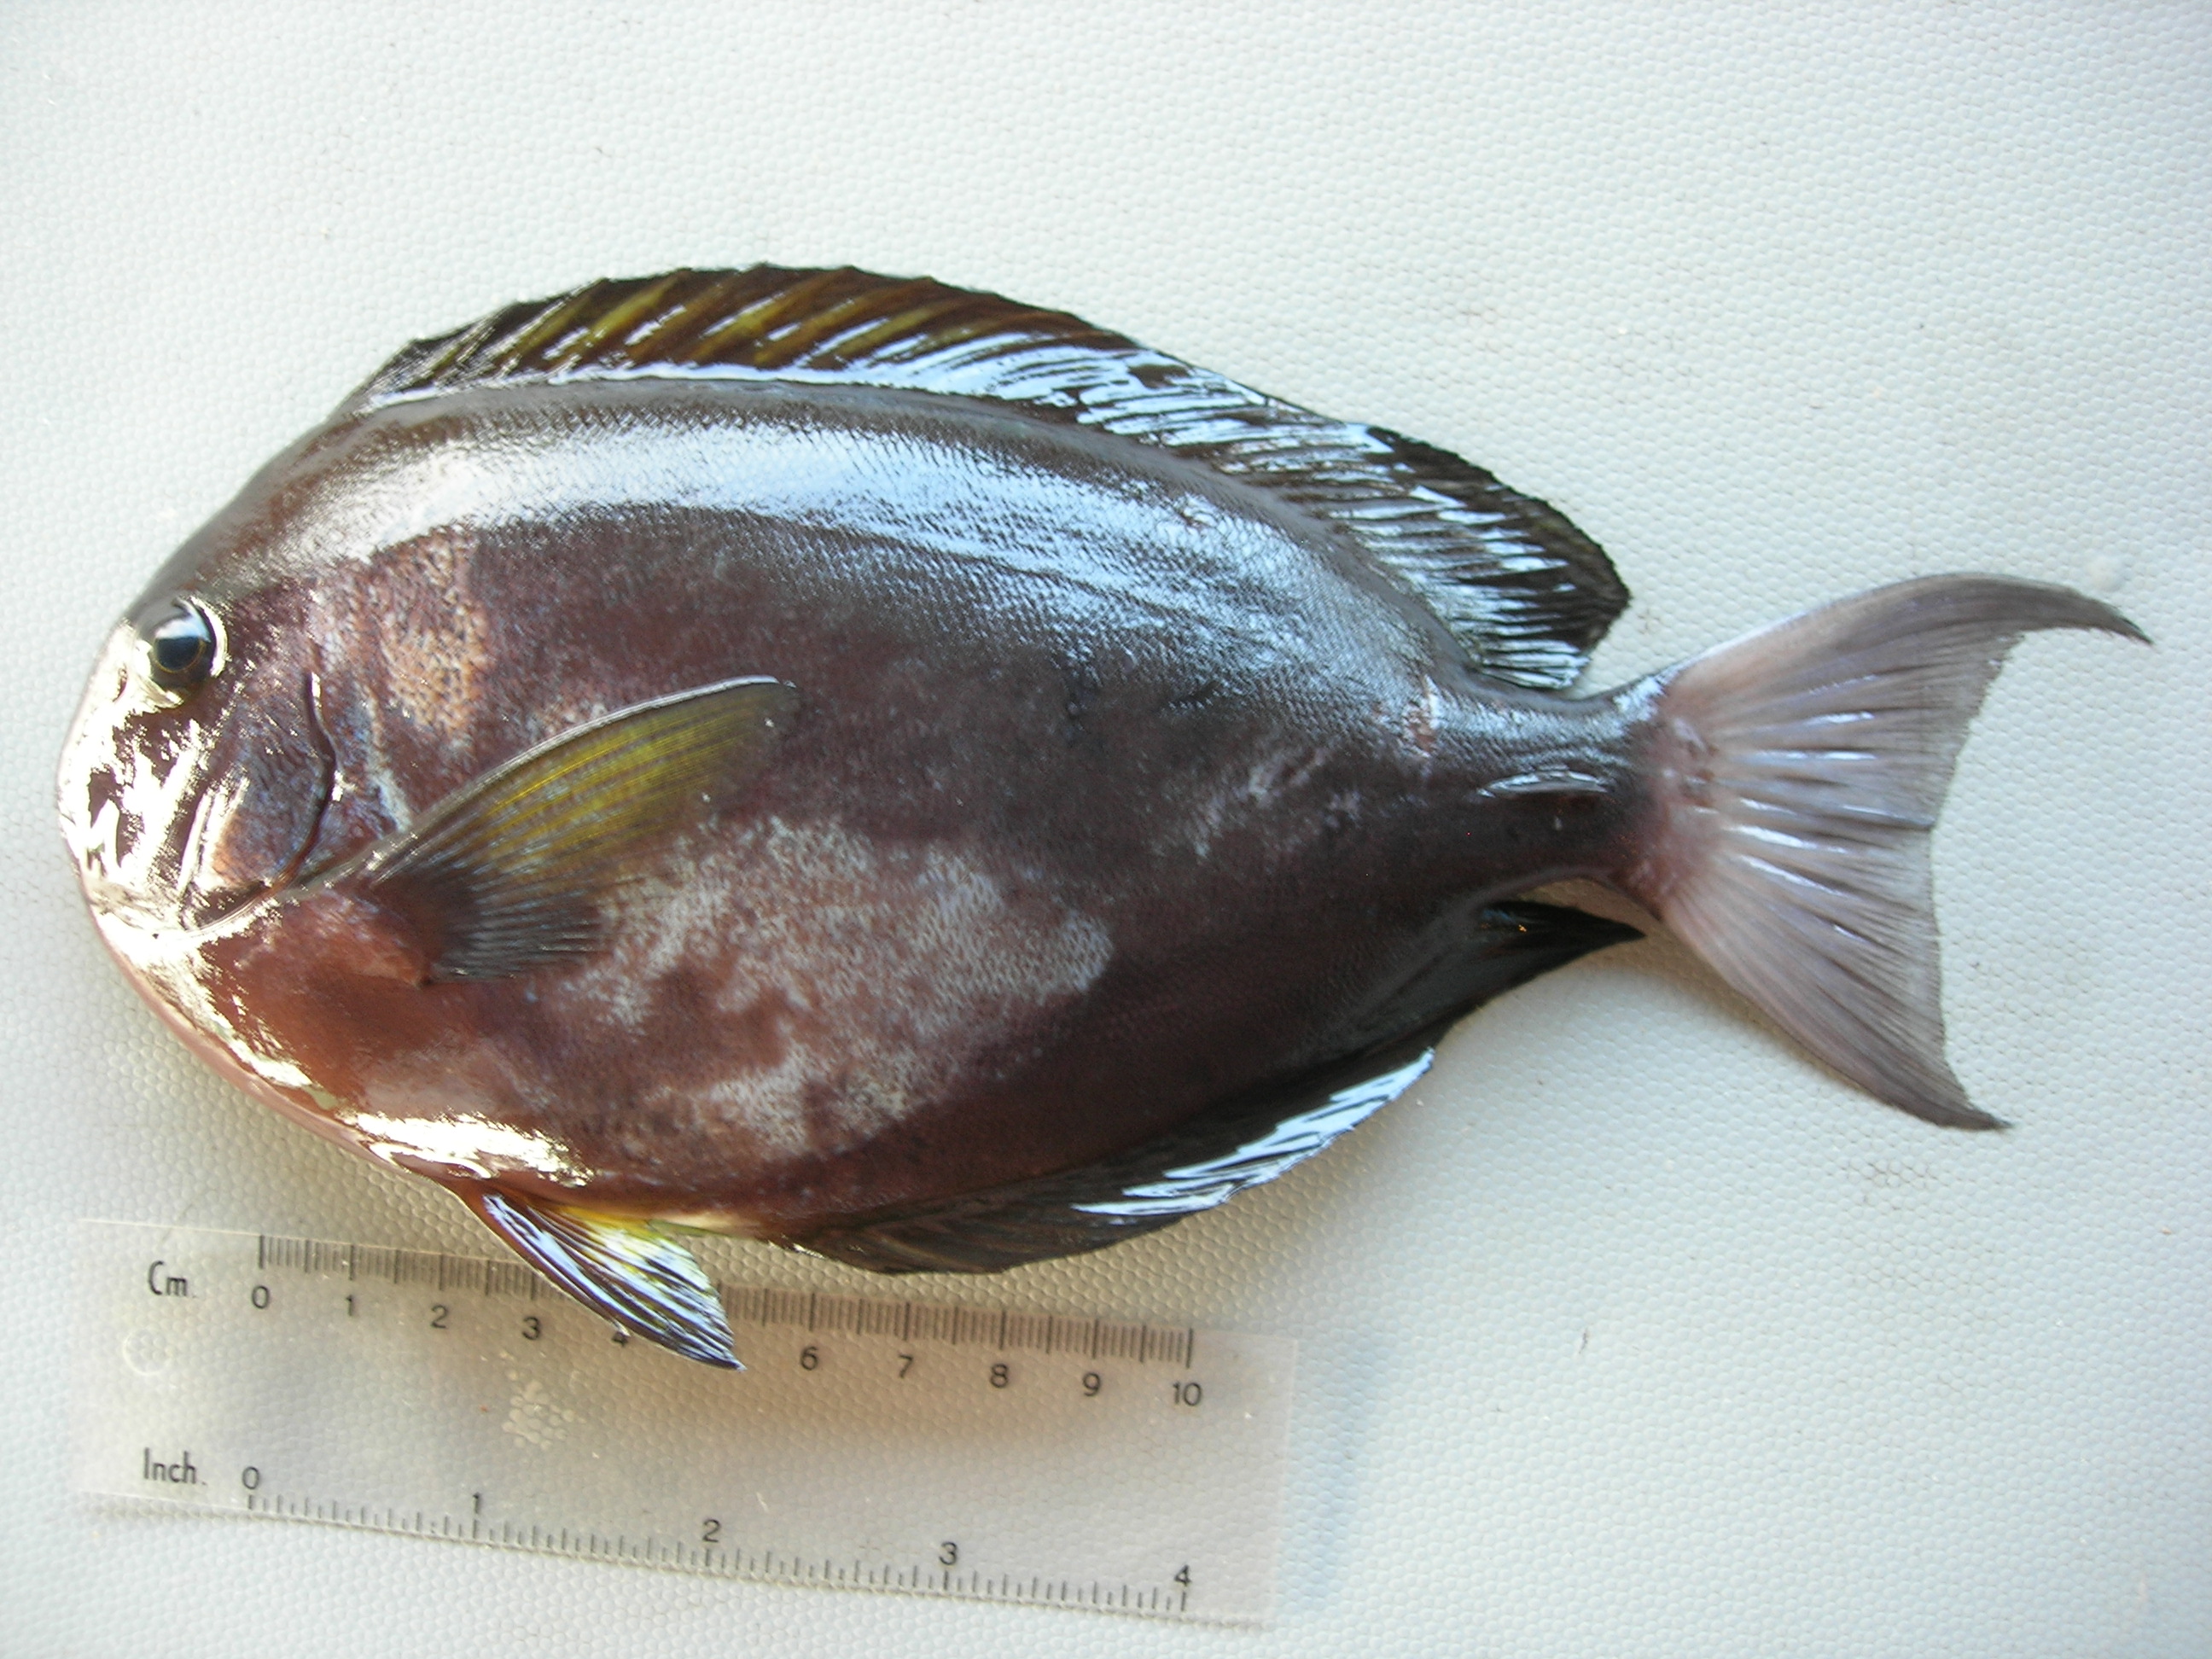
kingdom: Animalia
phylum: Chordata
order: Perciformes
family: Acanthuridae
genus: Acanthurus
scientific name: Acanthurus thompsoni
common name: Chocolate surgeonfish
